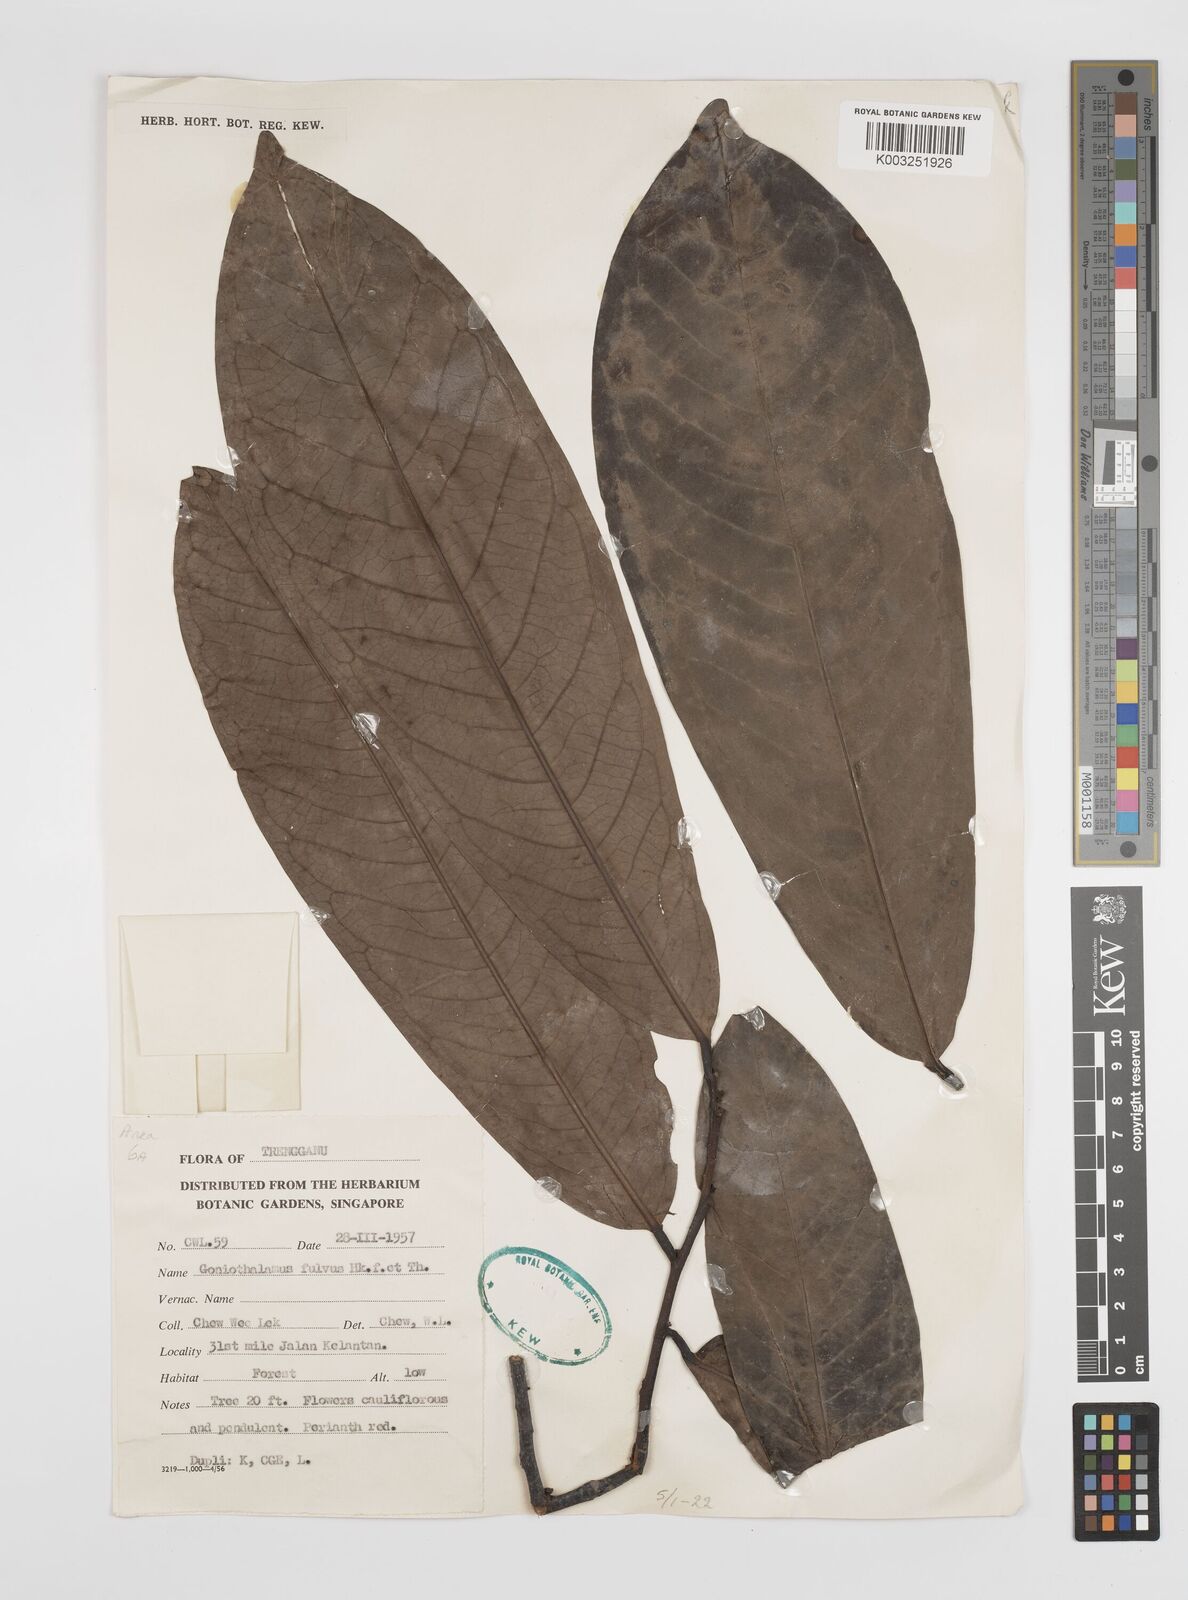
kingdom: Plantae
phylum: Tracheophyta
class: Magnoliopsida
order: Magnoliales
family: Annonaceae
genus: Goniothalamus
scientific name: Goniothalamus fulvus
